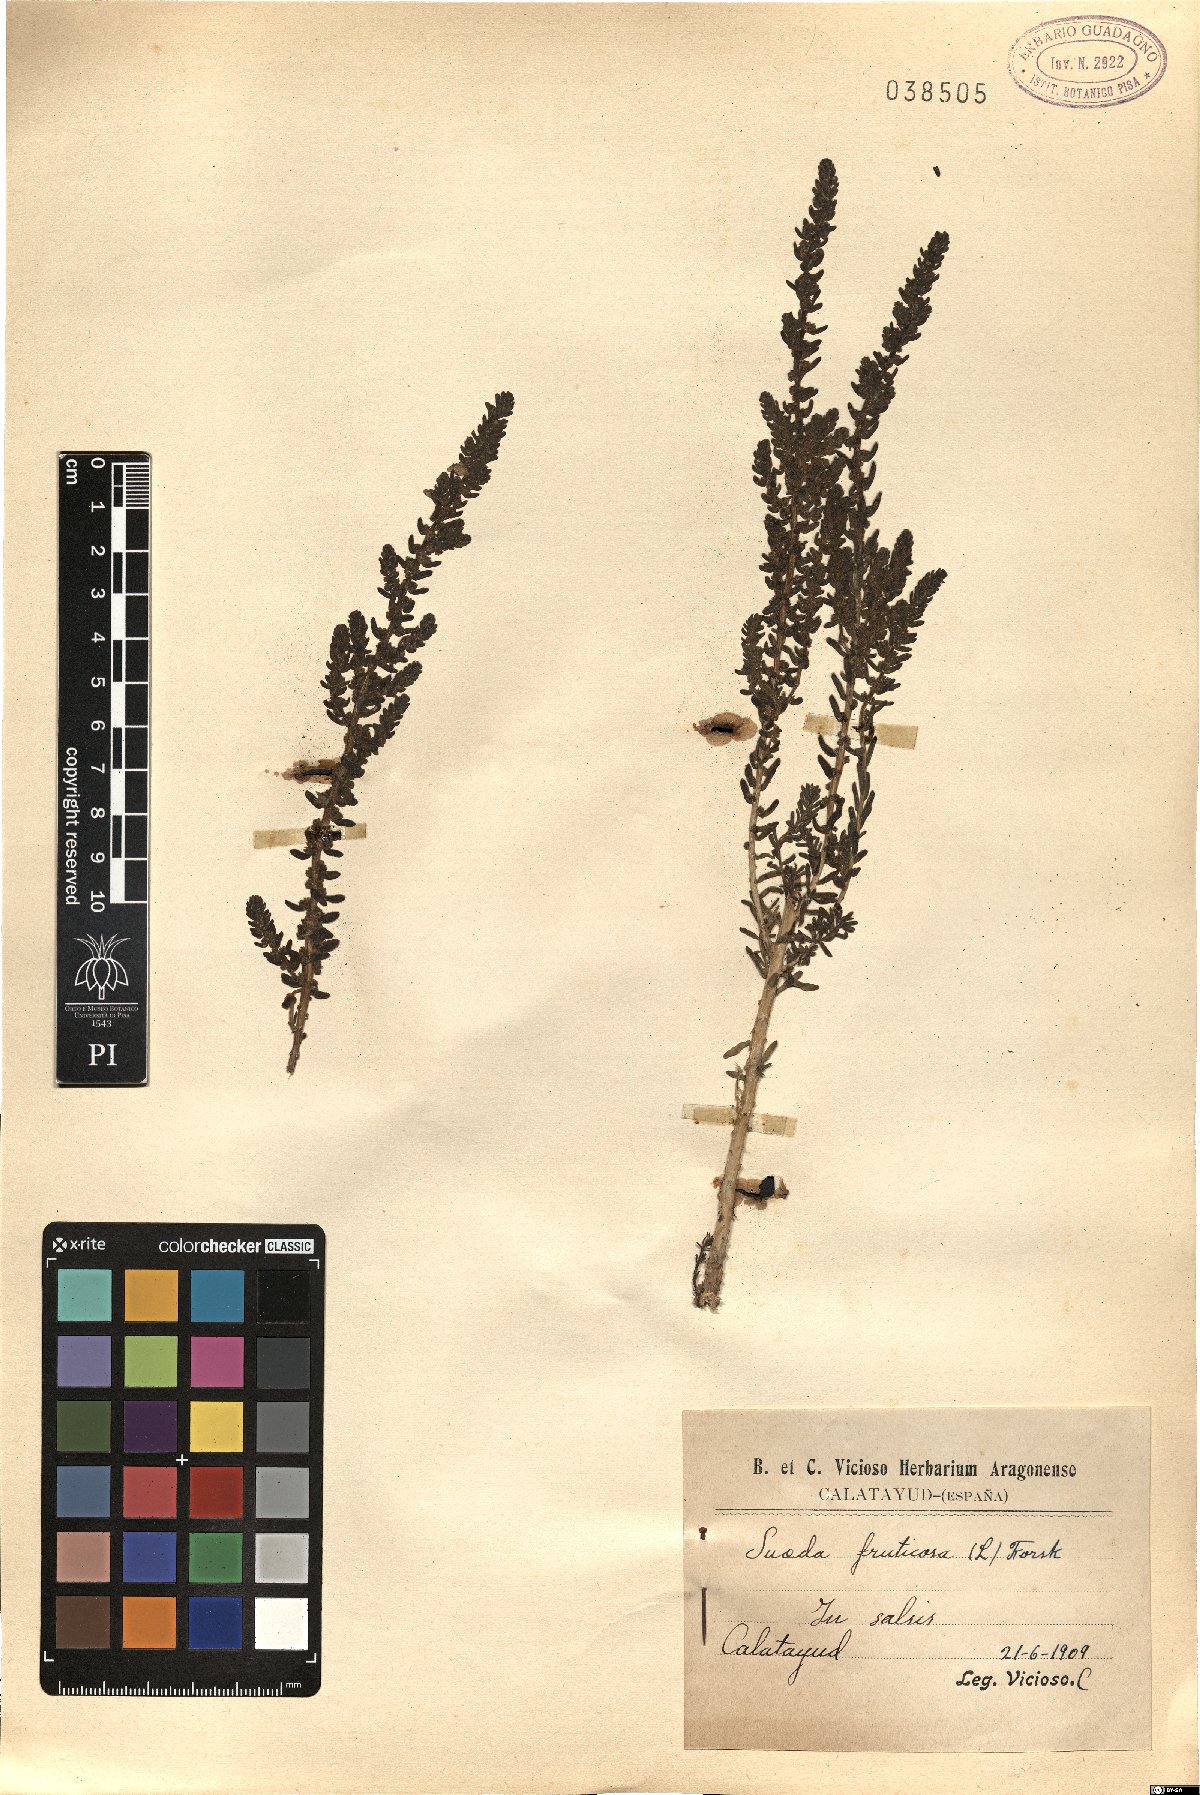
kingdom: Plantae
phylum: Tracheophyta
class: Magnoliopsida
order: Caryophyllales
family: Amaranthaceae
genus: Suaeda
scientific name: Suaeda fruticosa
